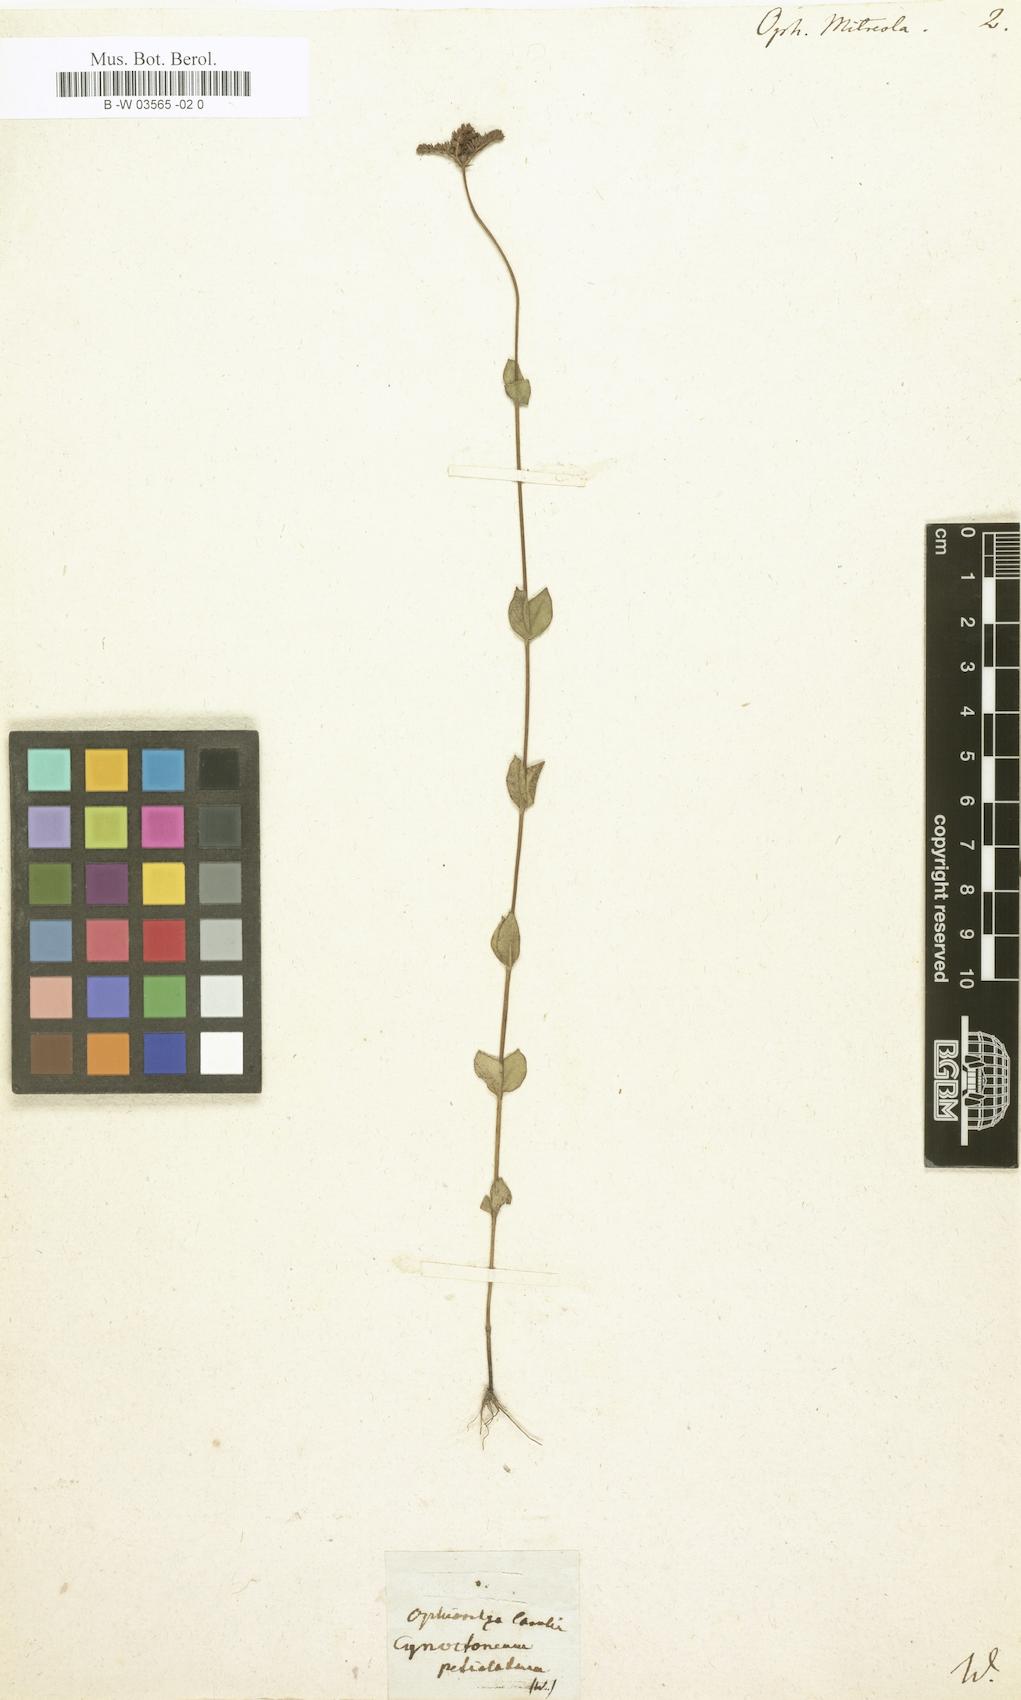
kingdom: Plantae
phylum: Tracheophyta
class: Magnoliopsida
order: Gentianales
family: Loganiaceae
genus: Mitreola
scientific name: Mitreola petiolata
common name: Lax hornpod
